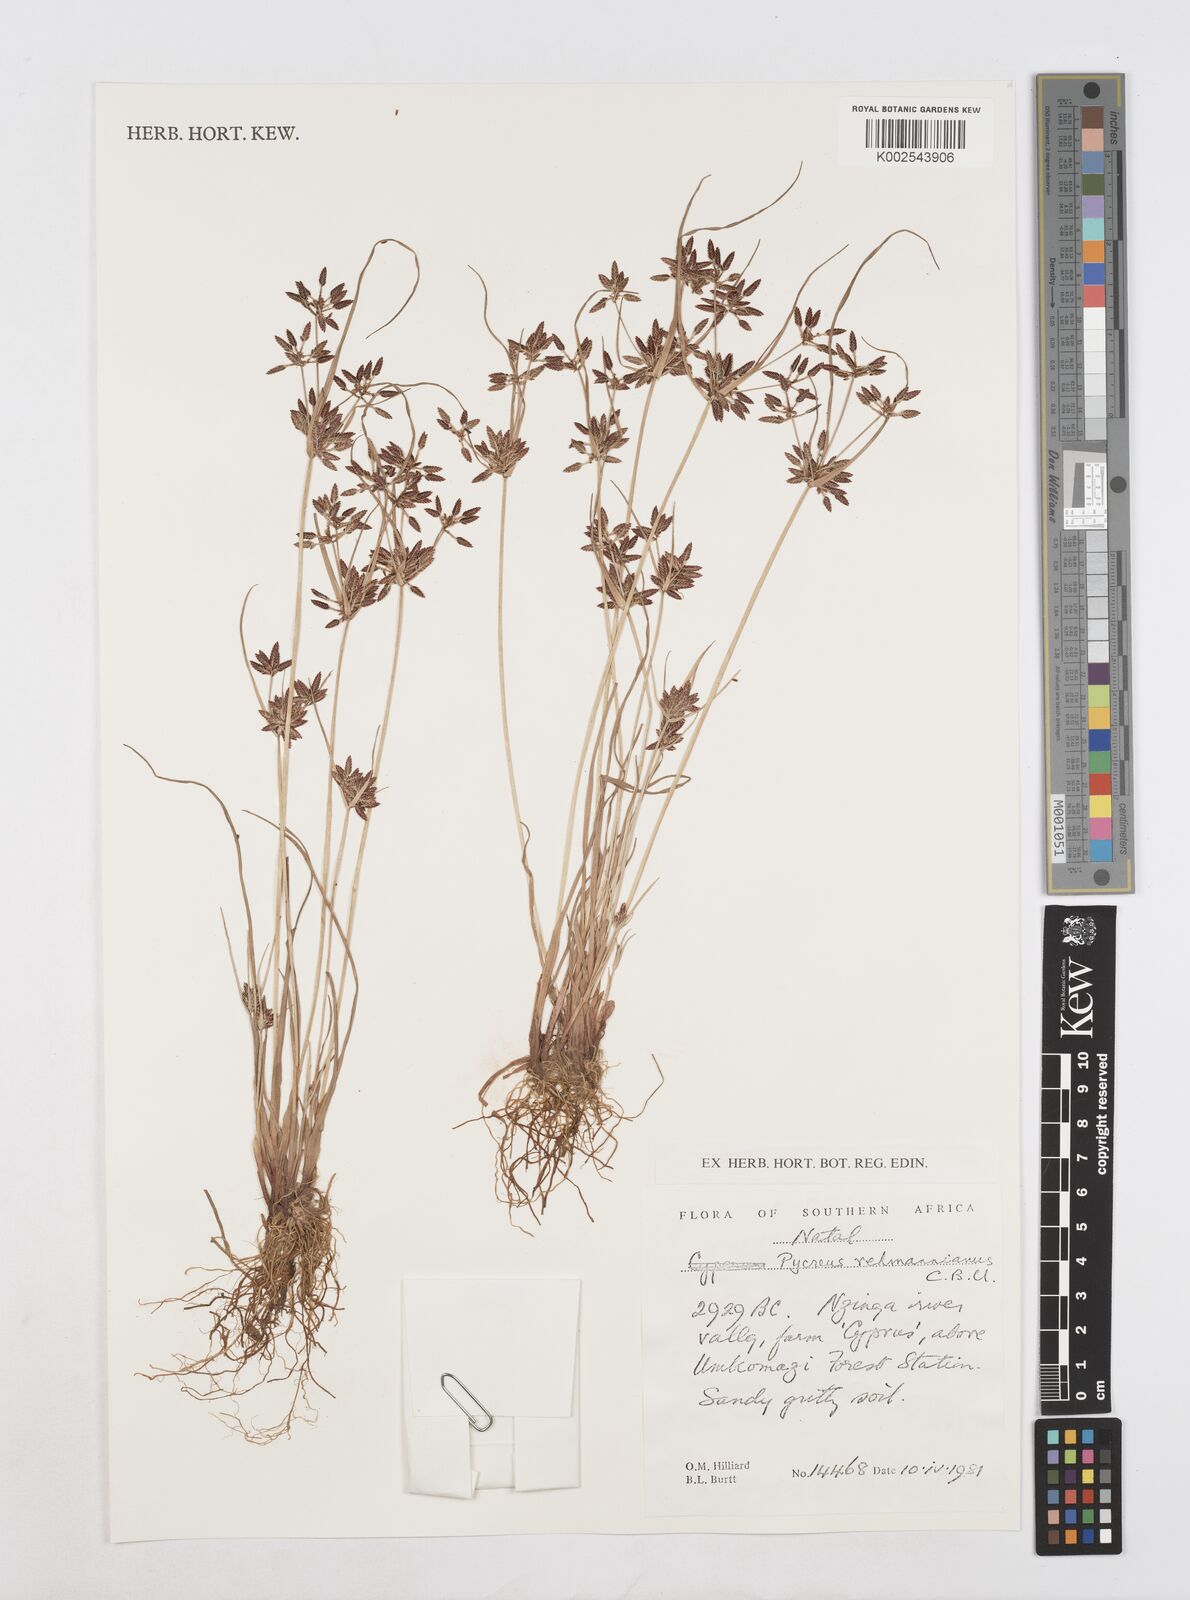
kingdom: Plantae
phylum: Tracheophyta
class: Liliopsida
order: Poales
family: Cyperaceae
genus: Cyperus
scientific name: Cyperus flavescens
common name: Yellow galingale
